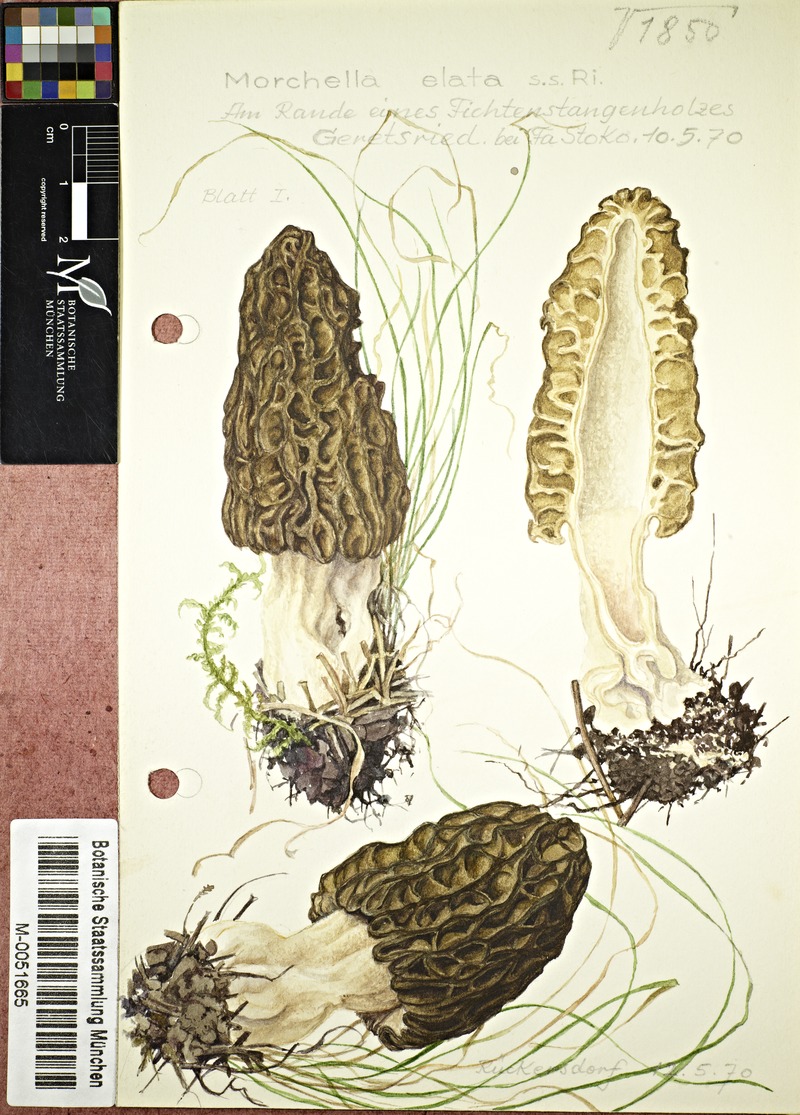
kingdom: Fungi
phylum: Ascomycota
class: Pezizomycetes
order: Pezizales
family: Morchellaceae
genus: Morchella
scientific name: Morchella elata
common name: Black morel
